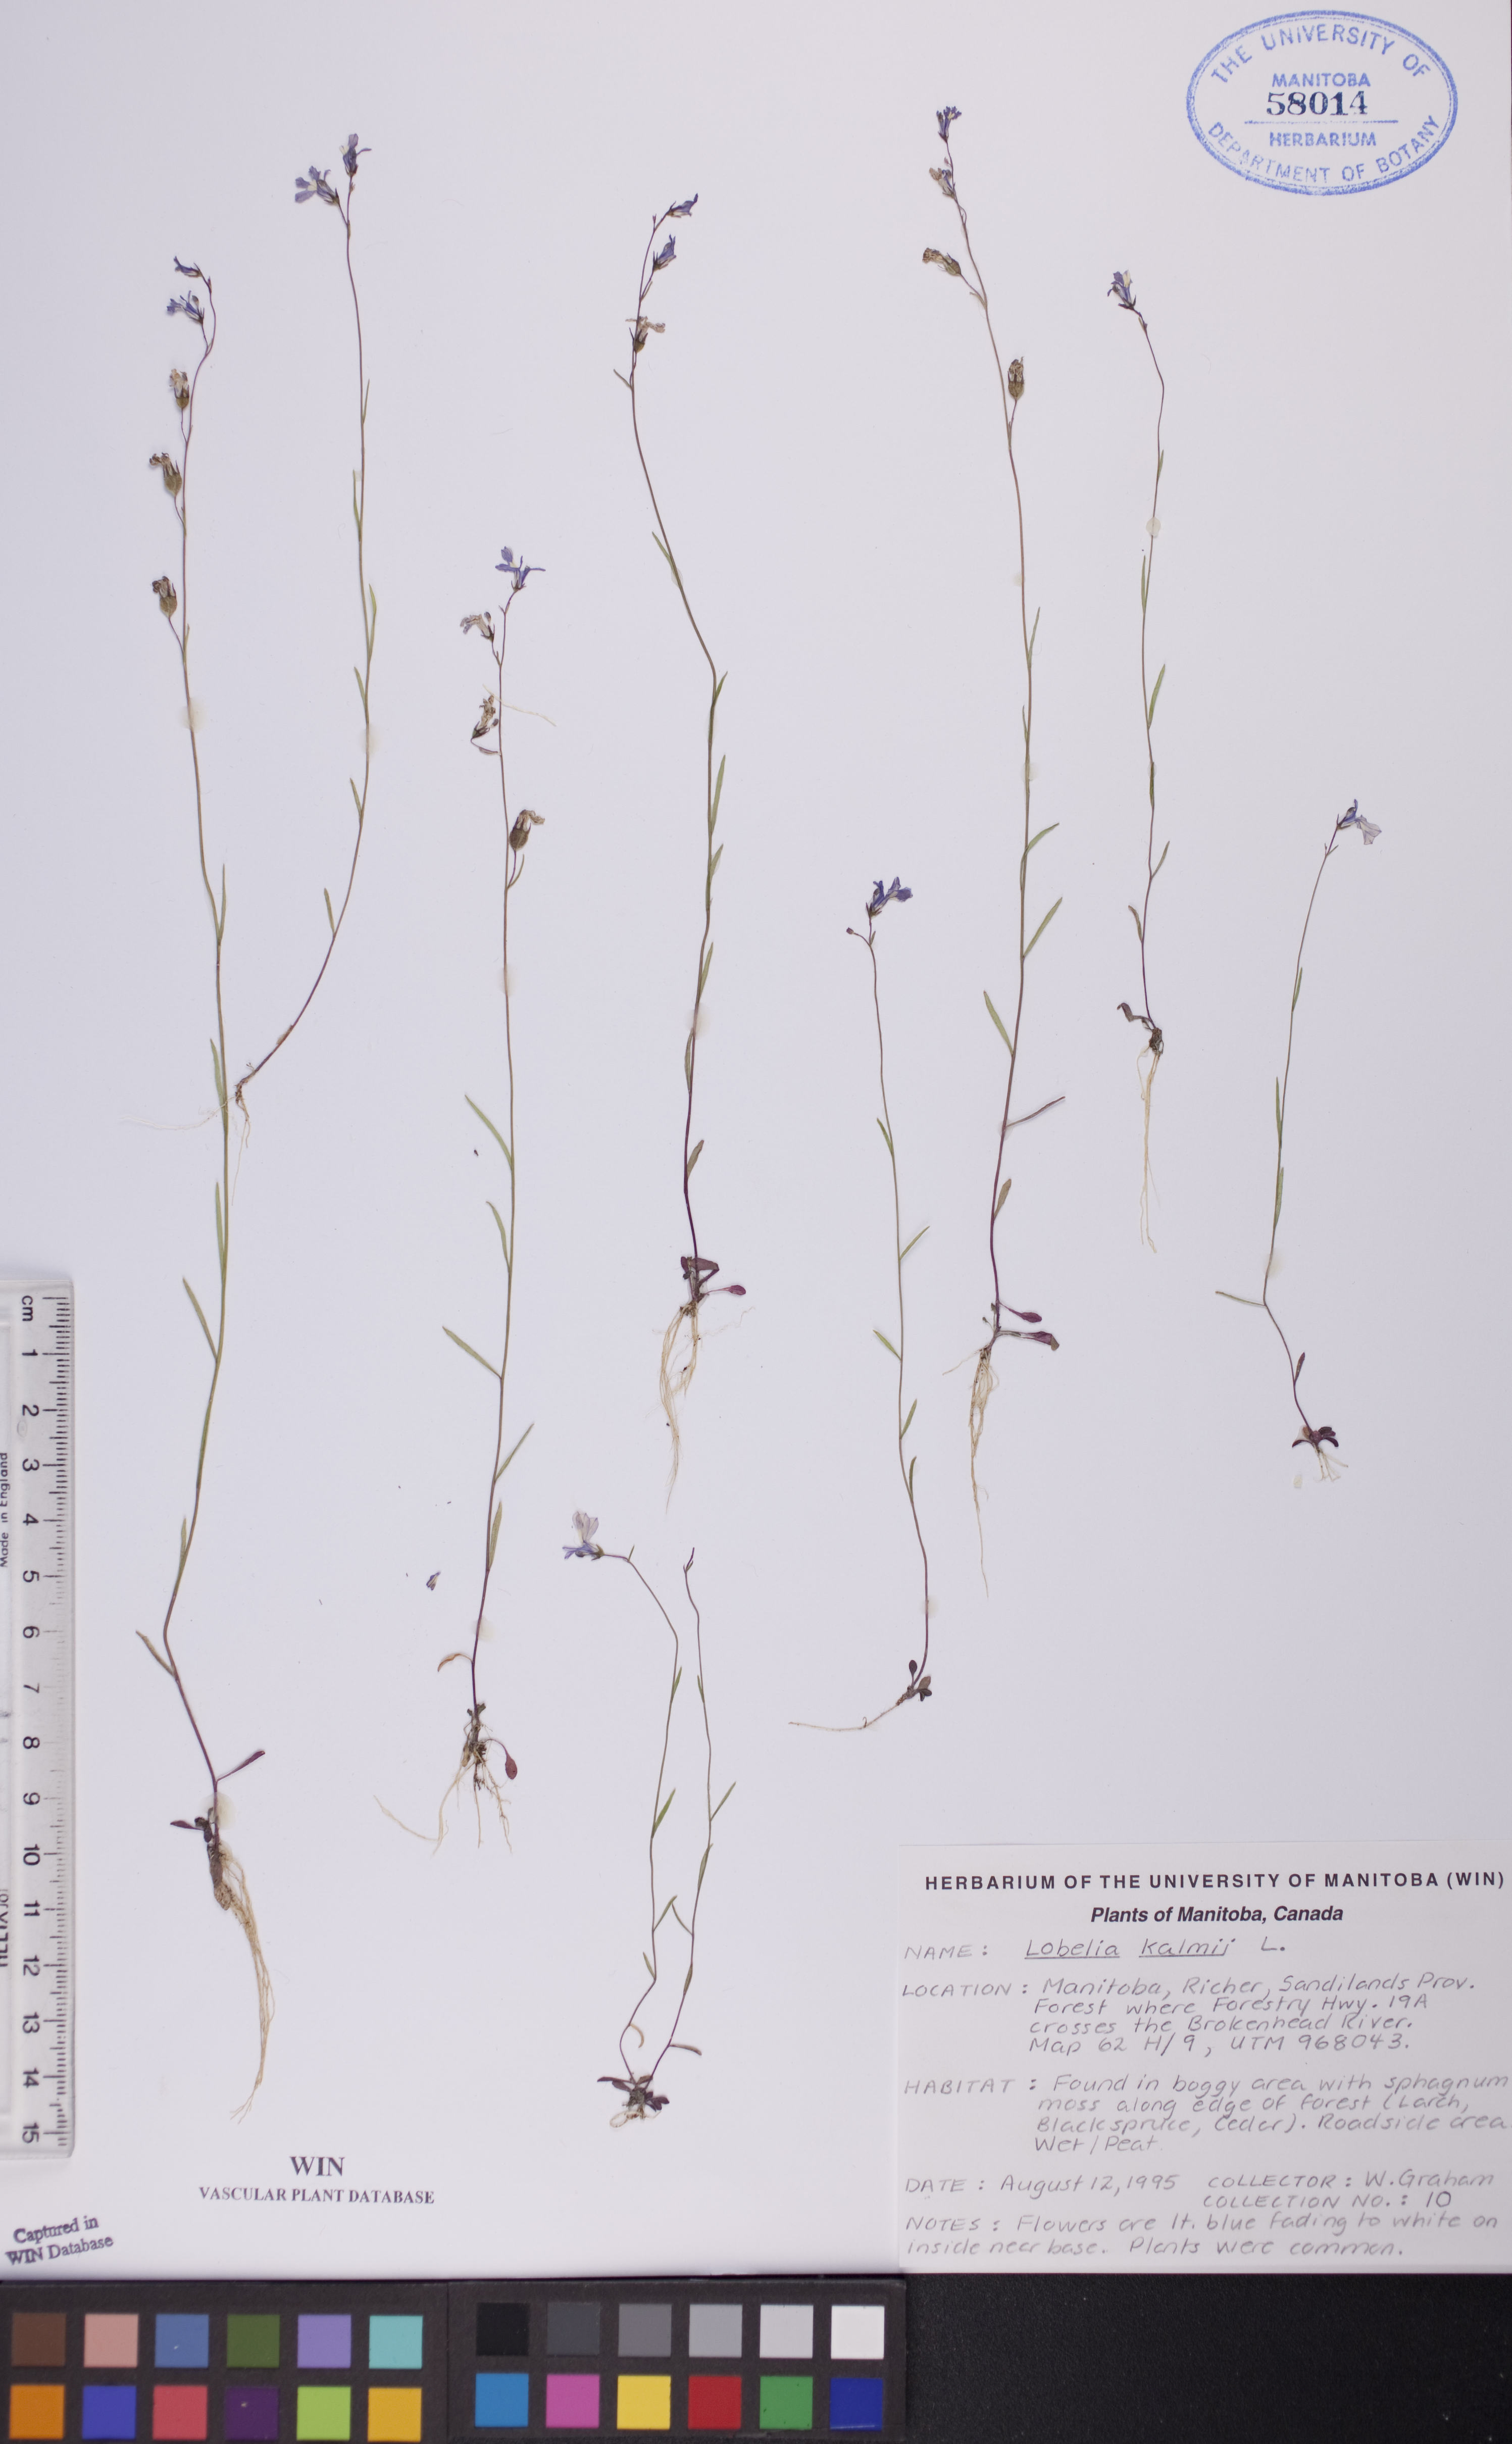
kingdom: Plantae
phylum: Tracheophyta
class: Magnoliopsida
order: Asterales
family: Campanulaceae
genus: Lobelia
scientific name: Lobelia kalmii
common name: Kalm's lobelia
